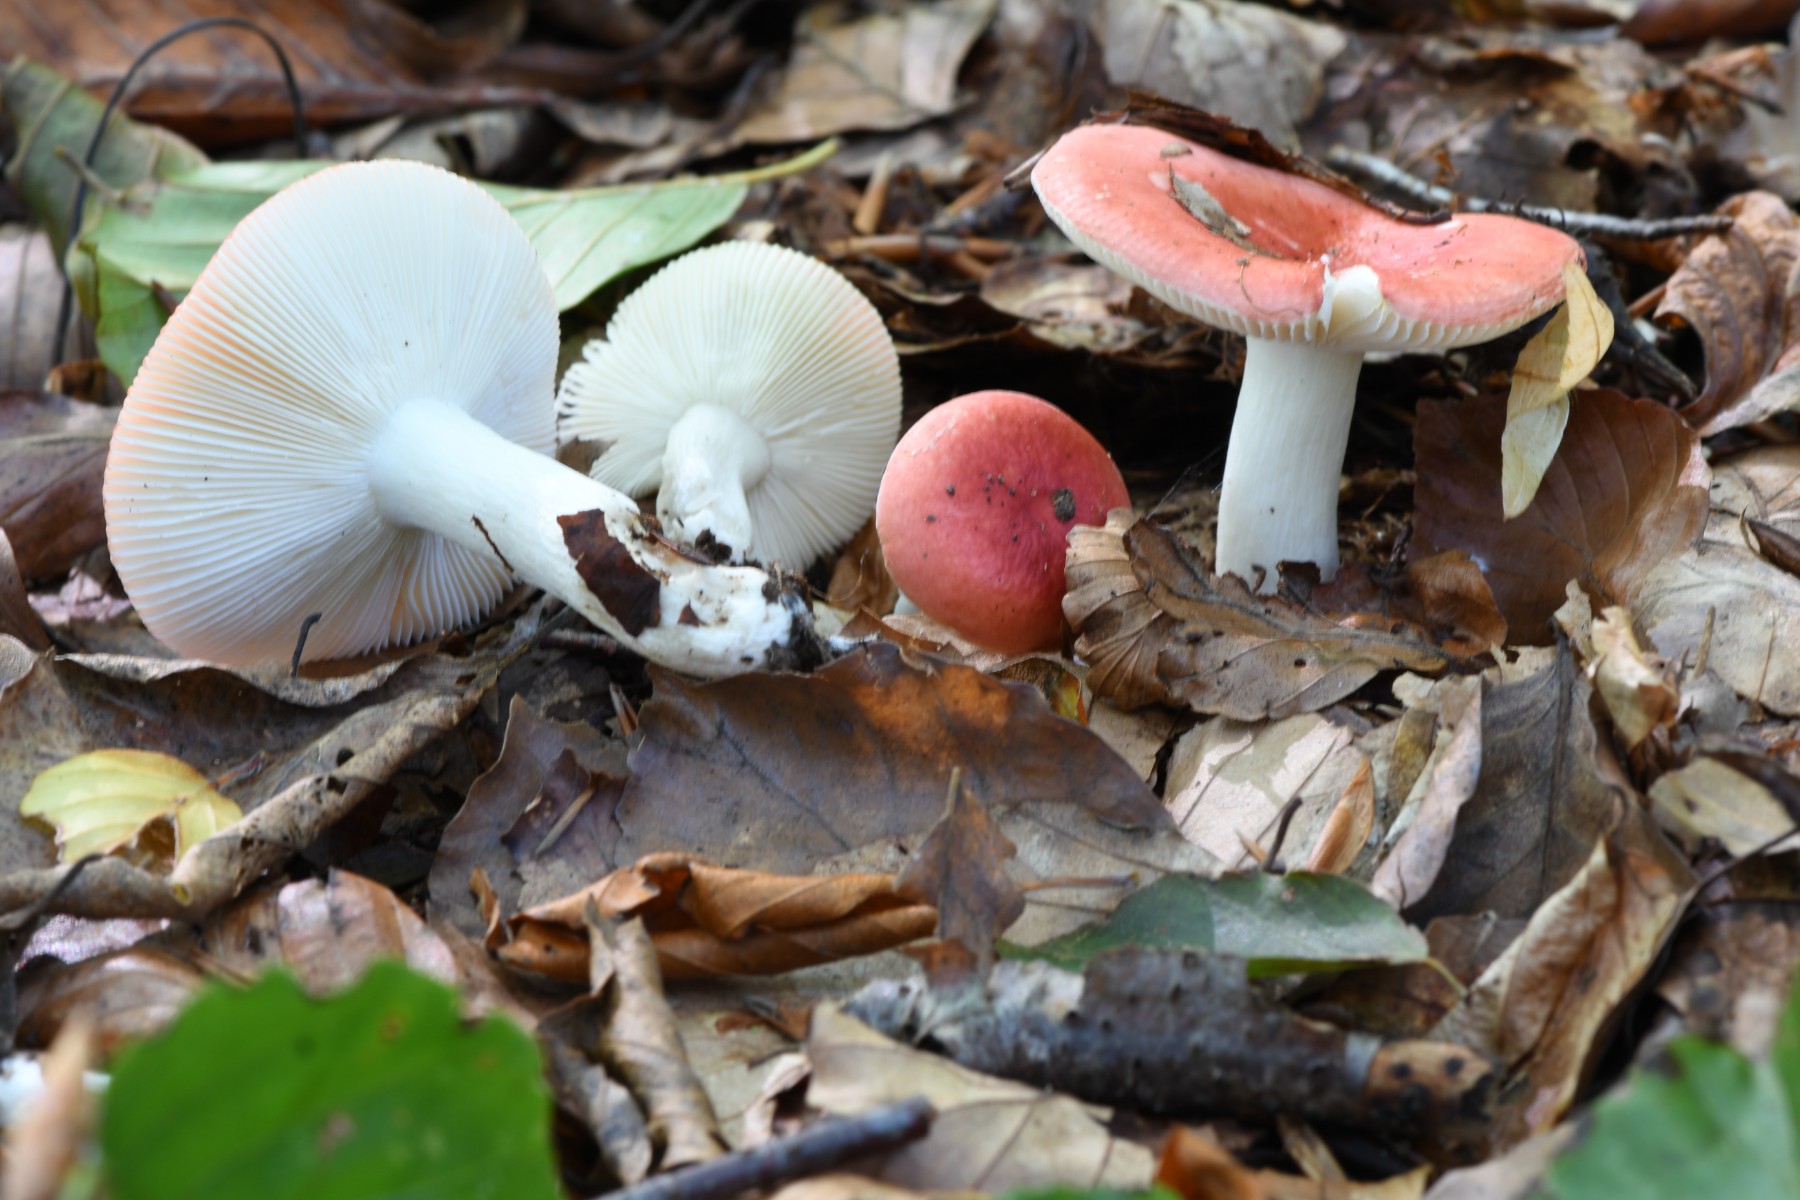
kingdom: Fungi
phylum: Basidiomycota
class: Agaricomycetes
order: Russulales
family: Russulaceae
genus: Russula
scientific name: Russula nobilis
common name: lille gift-skørhat
